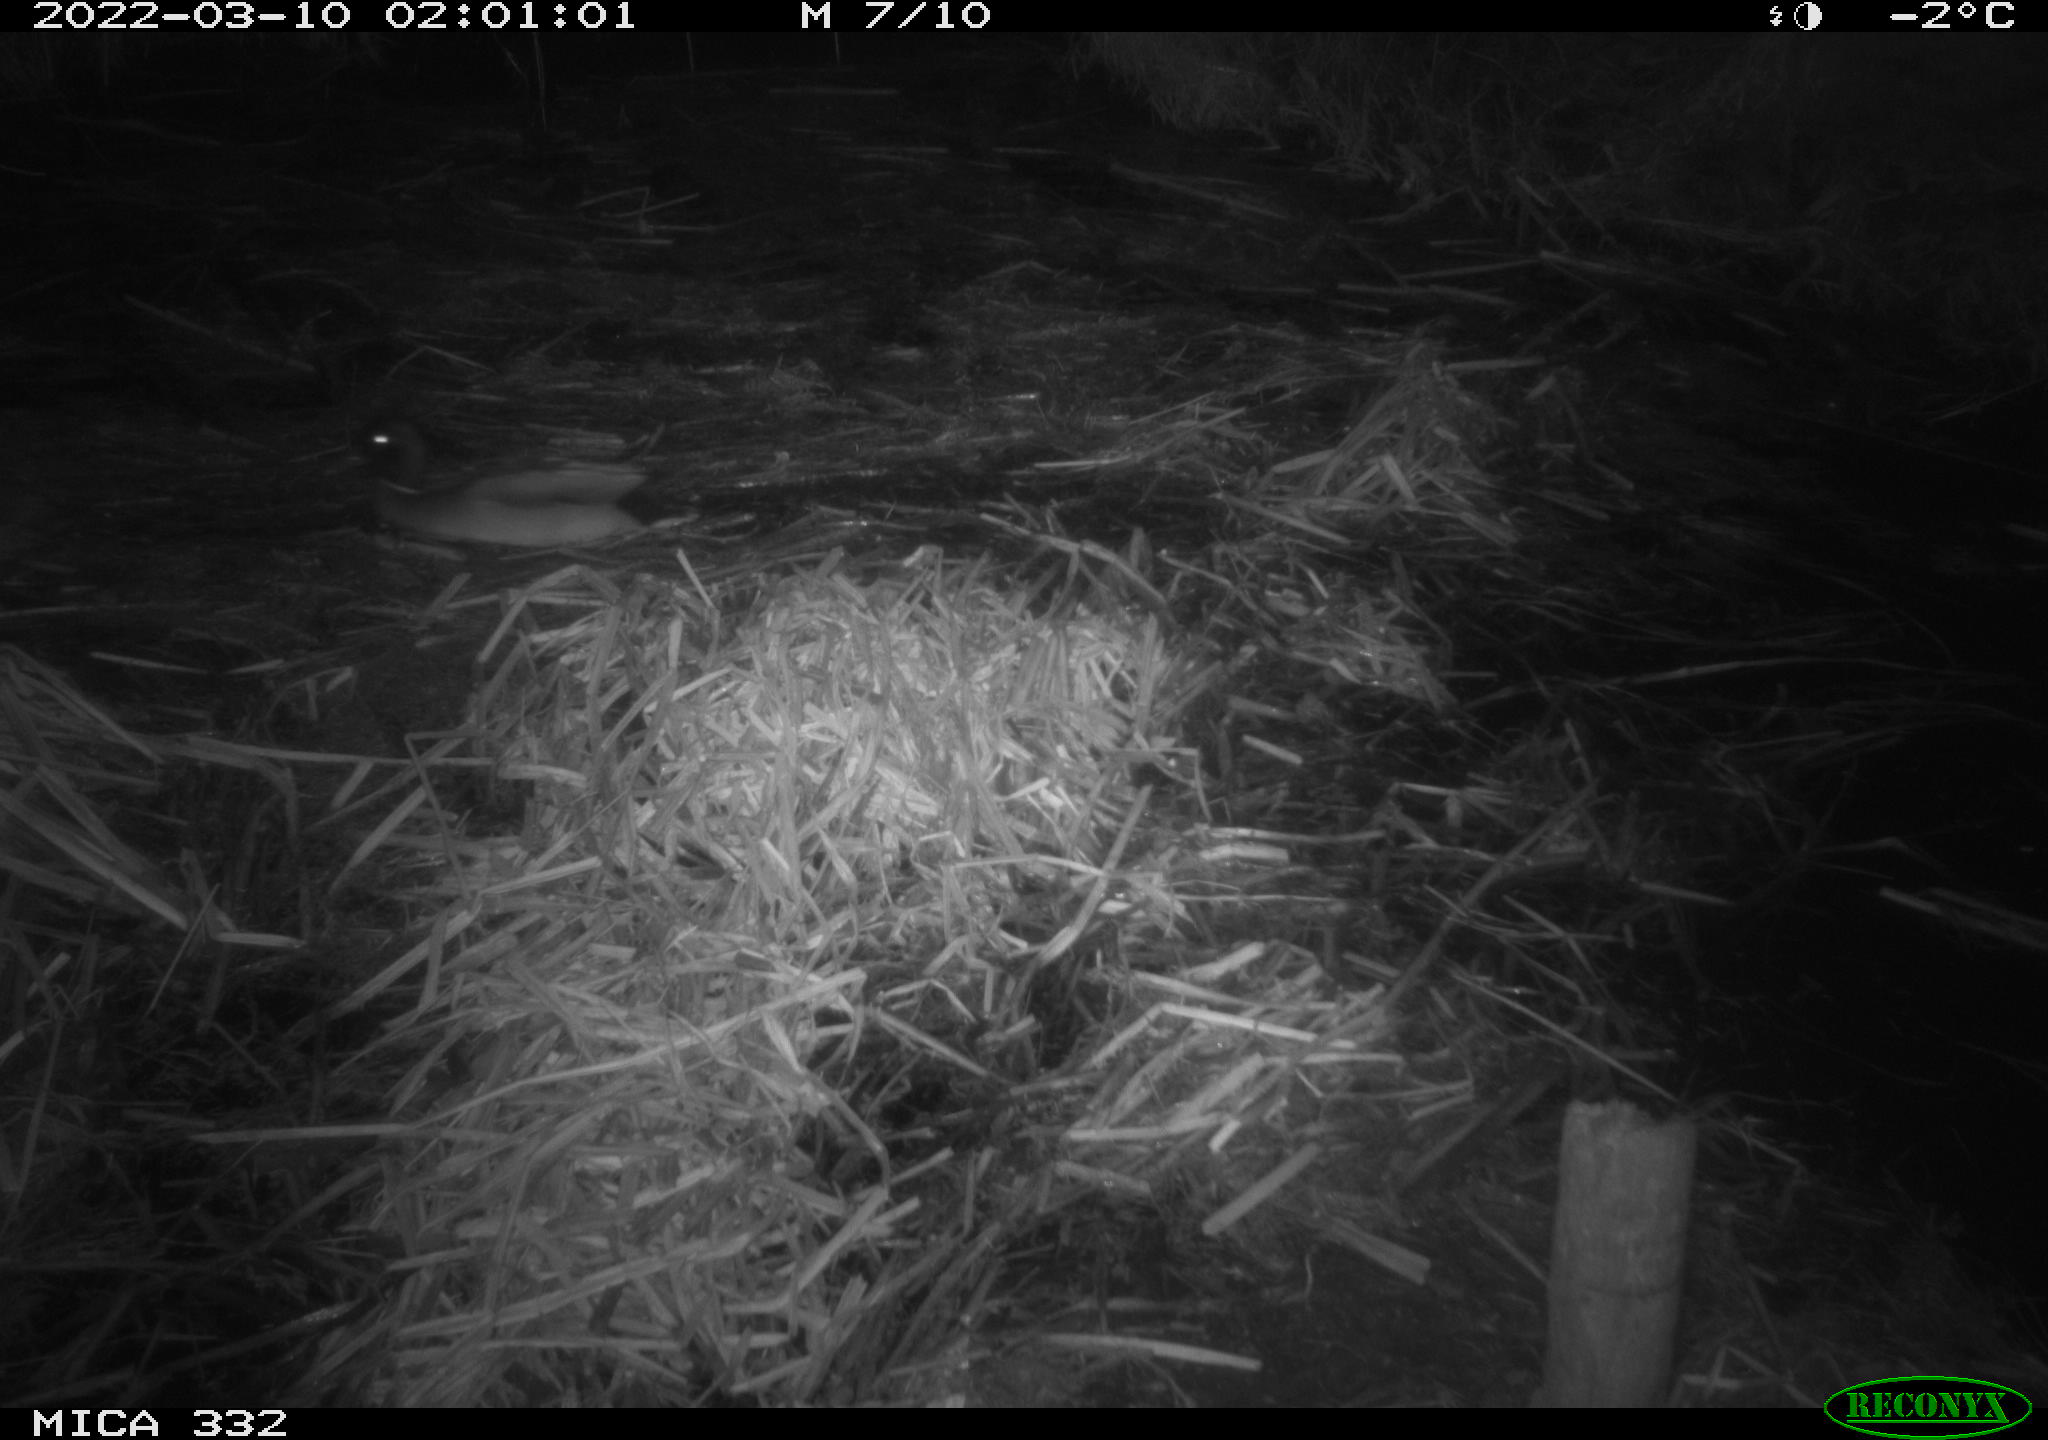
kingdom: Animalia
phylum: Chordata
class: Aves
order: Anseriformes
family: Anatidae
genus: Anas
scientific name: Anas platyrhynchos
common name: Mallard
